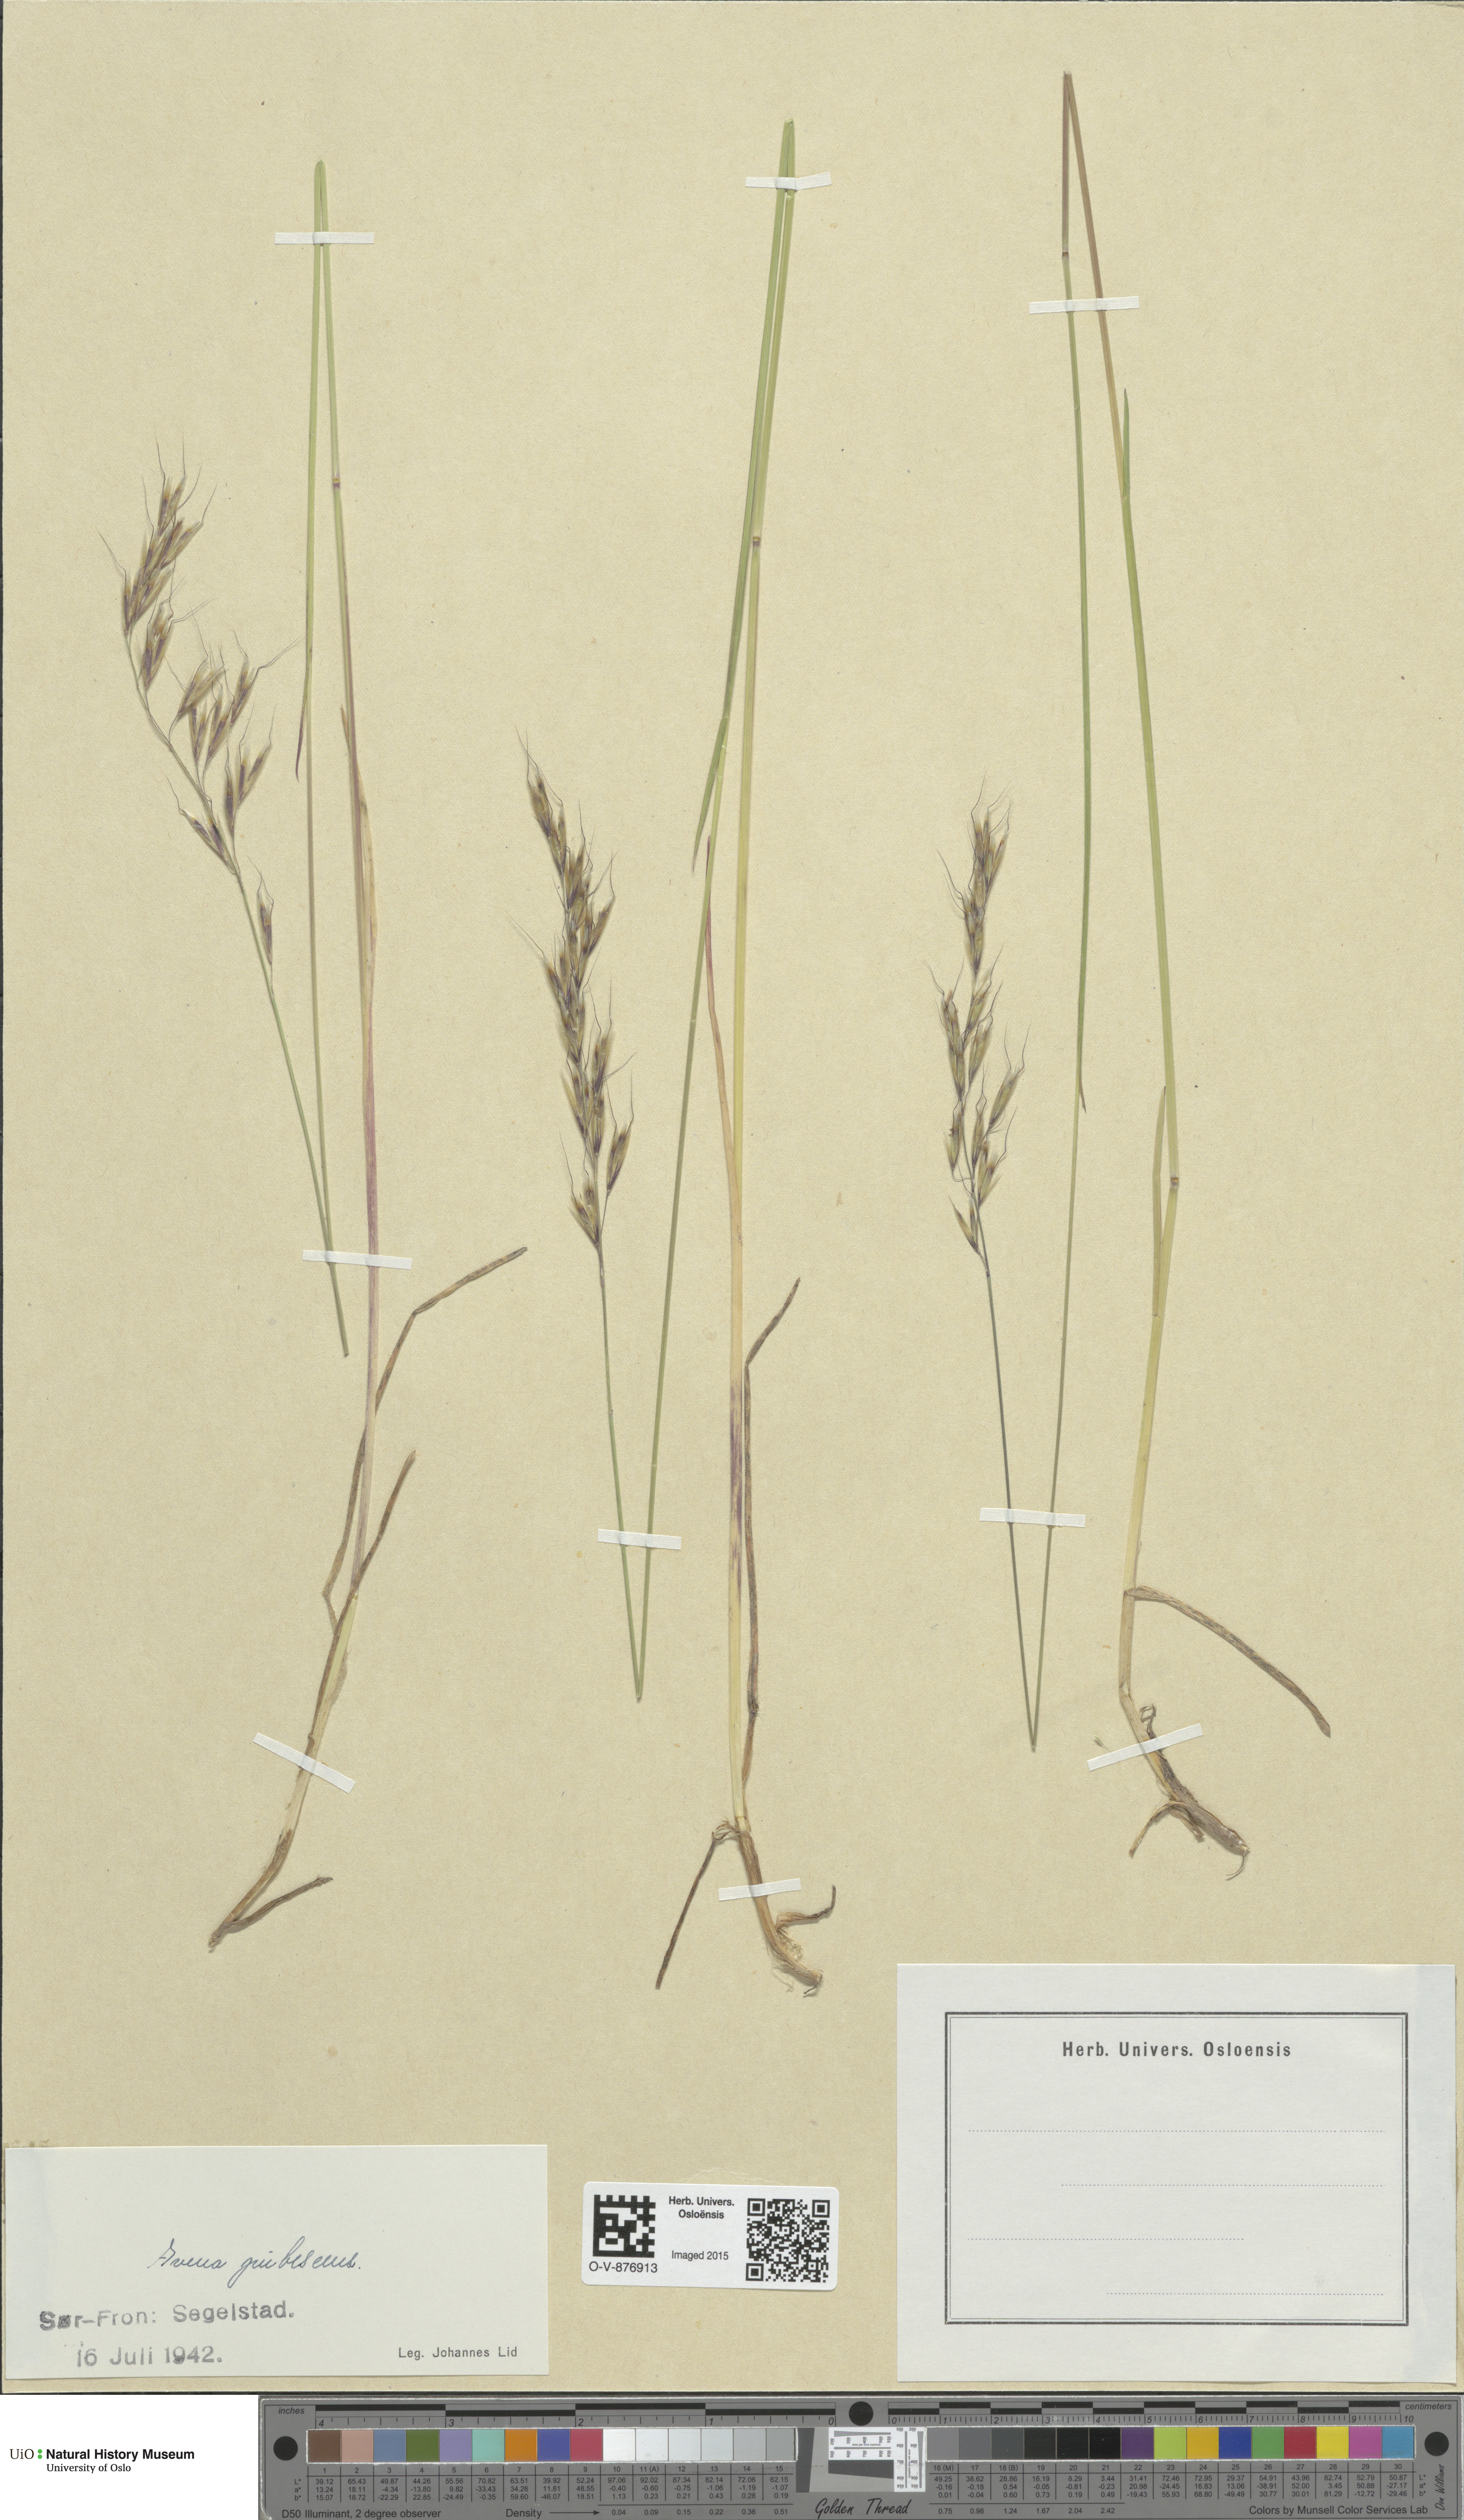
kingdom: Plantae
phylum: Tracheophyta
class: Liliopsida
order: Poales
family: Poaceae
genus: Avenula
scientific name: Avenula pubescens
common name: Downy alpine oatgrass
